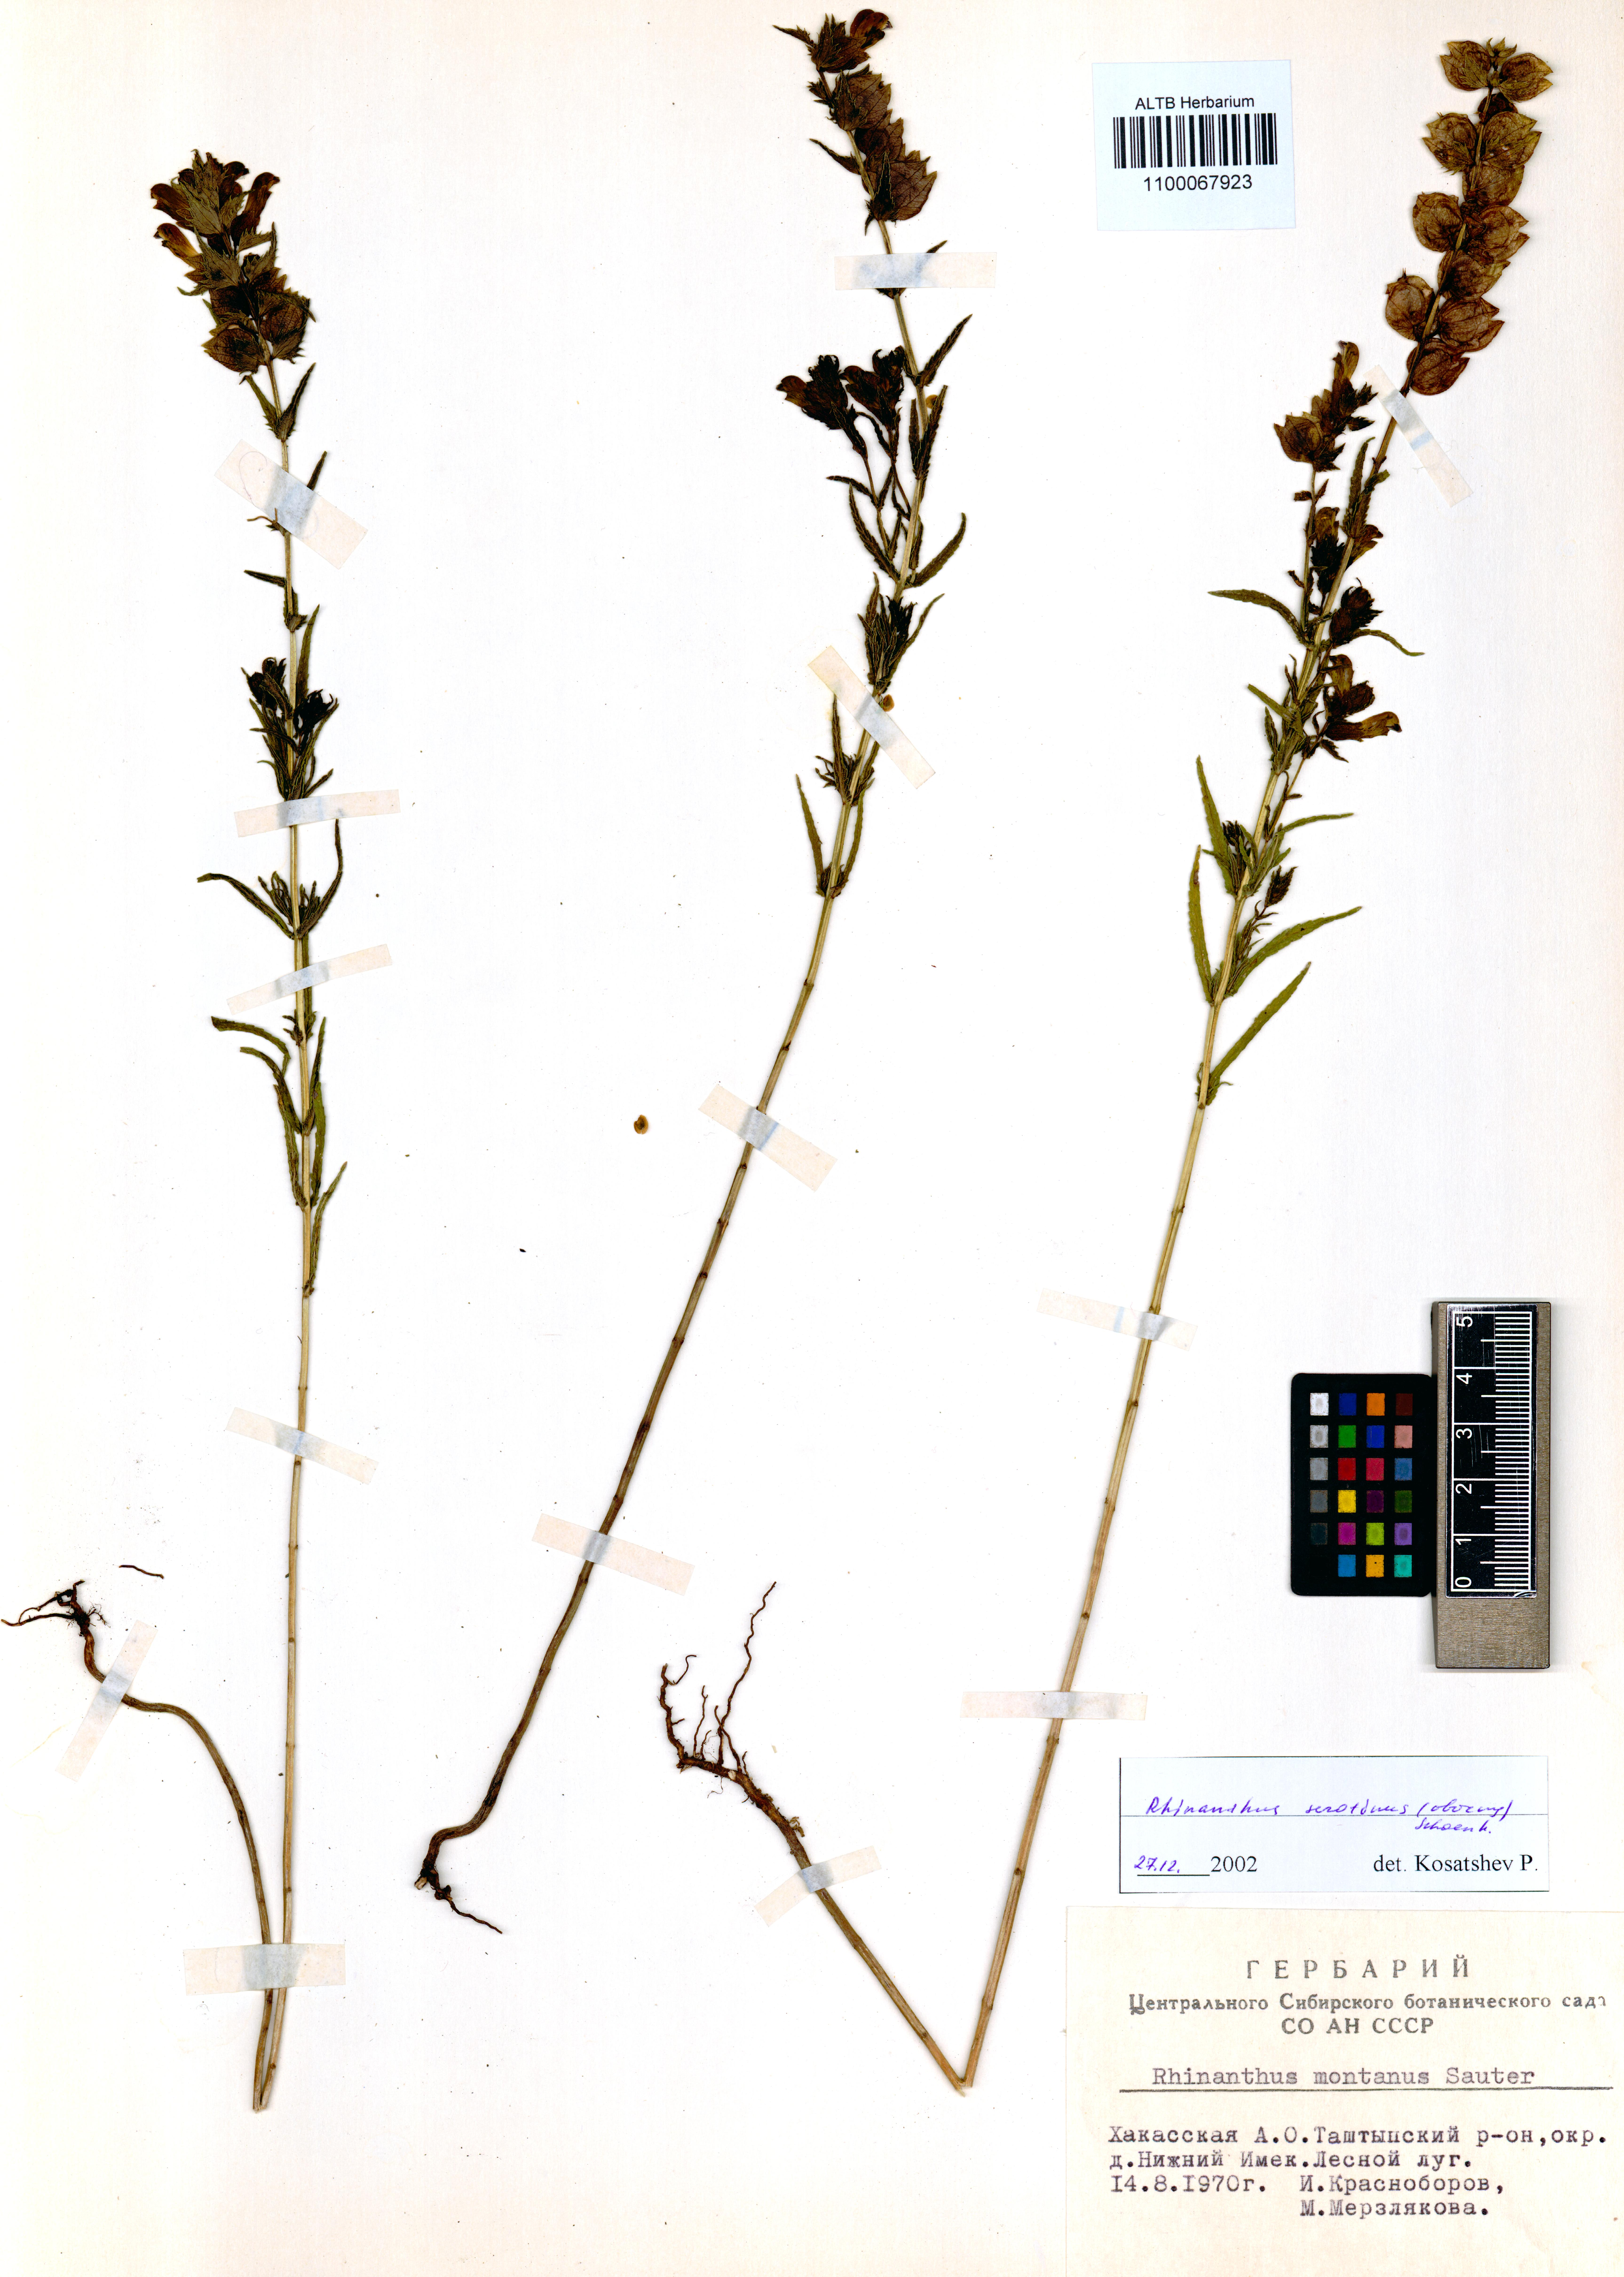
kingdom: Plantae
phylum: Tracheophyta
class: Magnoliopsida
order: Lamiales
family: Orobanchaceae
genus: Rhinanthus
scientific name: Rhinanthus serotinus
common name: Late-flowering yellow rattle
